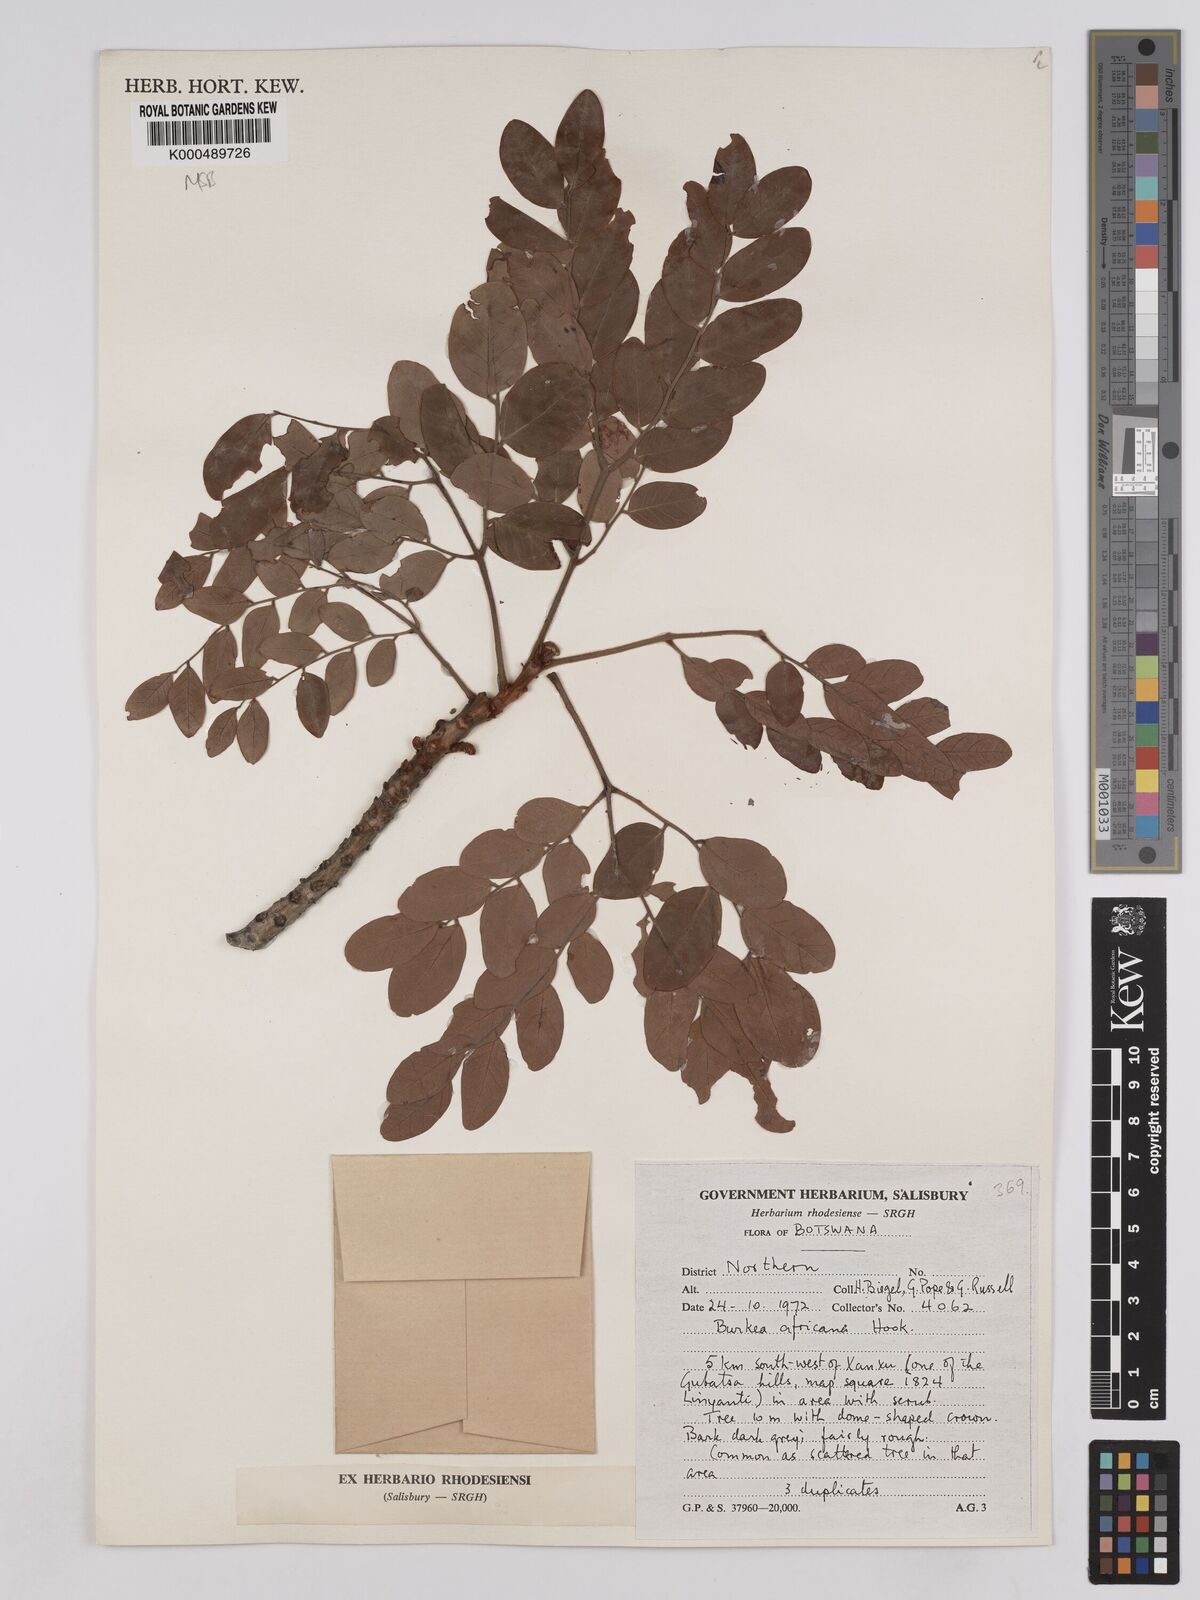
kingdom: Plantae
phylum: Tracheophyta
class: Magnoliopsida
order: Fabales
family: Fabaceae
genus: Burkea
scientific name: Burkea africana
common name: Mkalati tree
